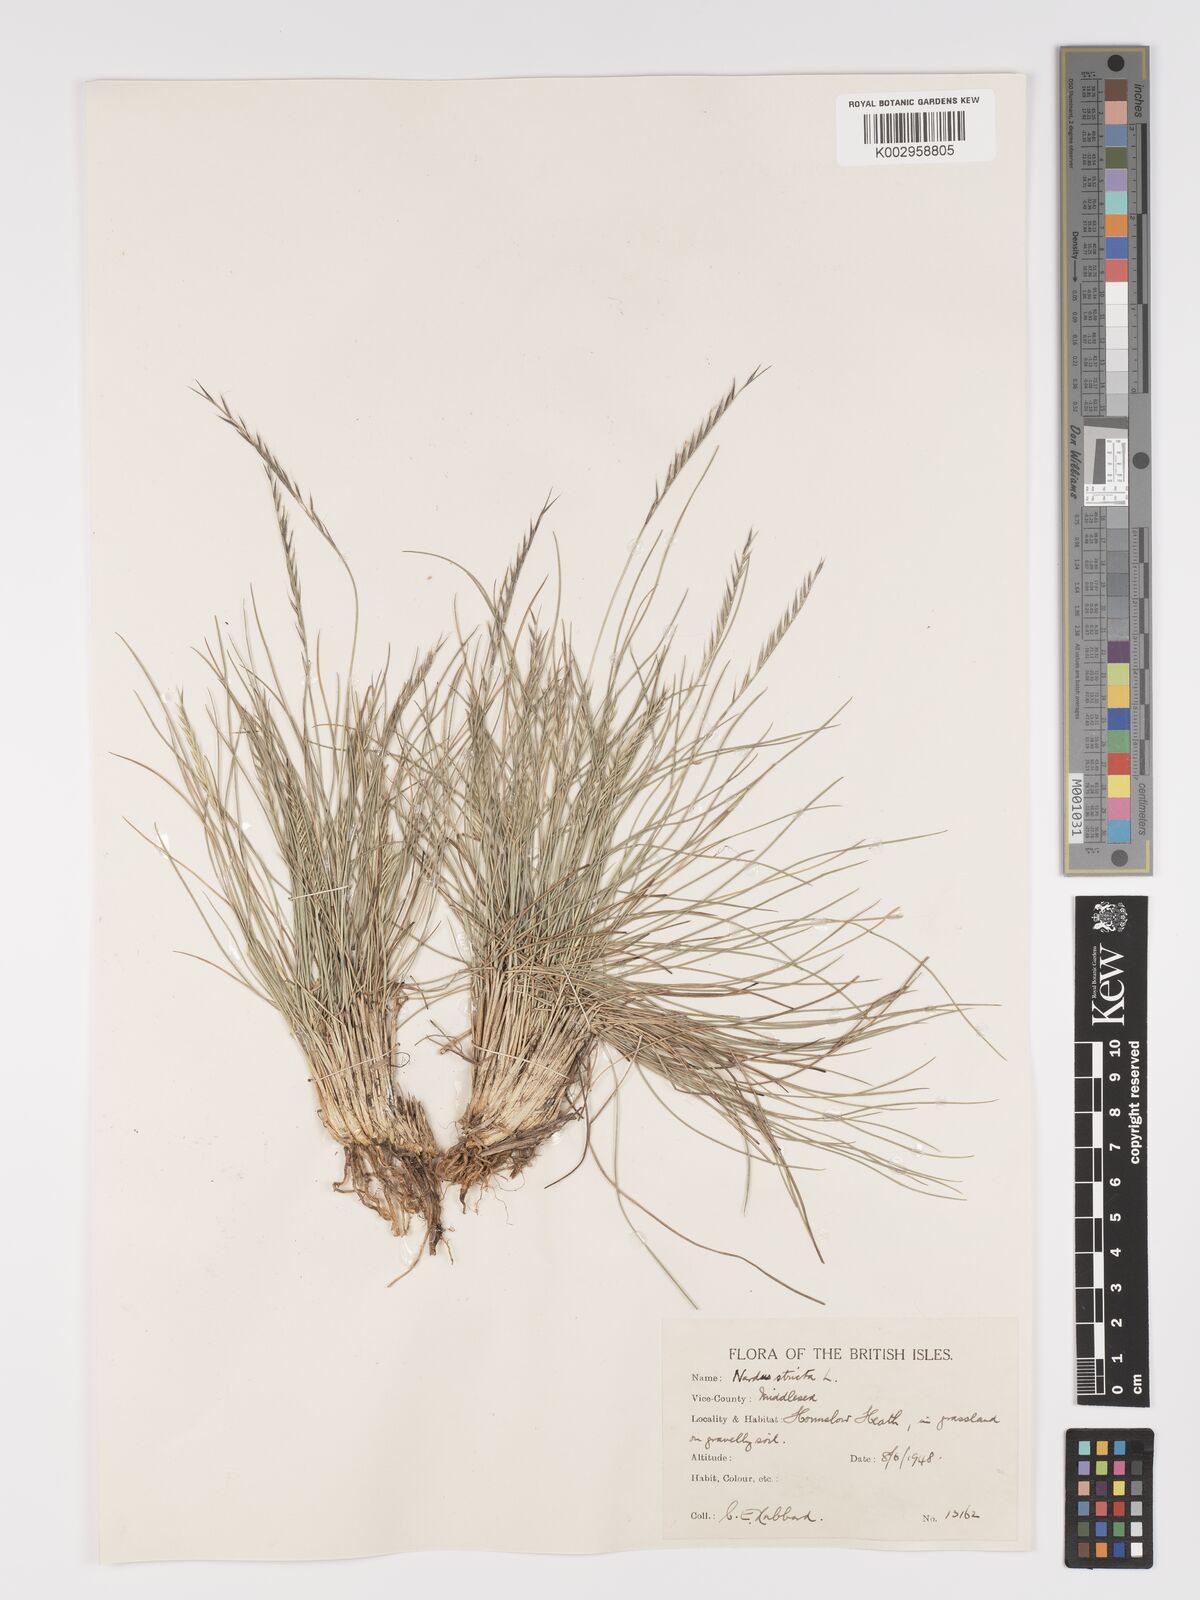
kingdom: Plantae
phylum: Tracheophyta
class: Liliopsida
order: Poales
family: Poaceae
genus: Nardus
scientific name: Nardus stricta
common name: Mat-grass
